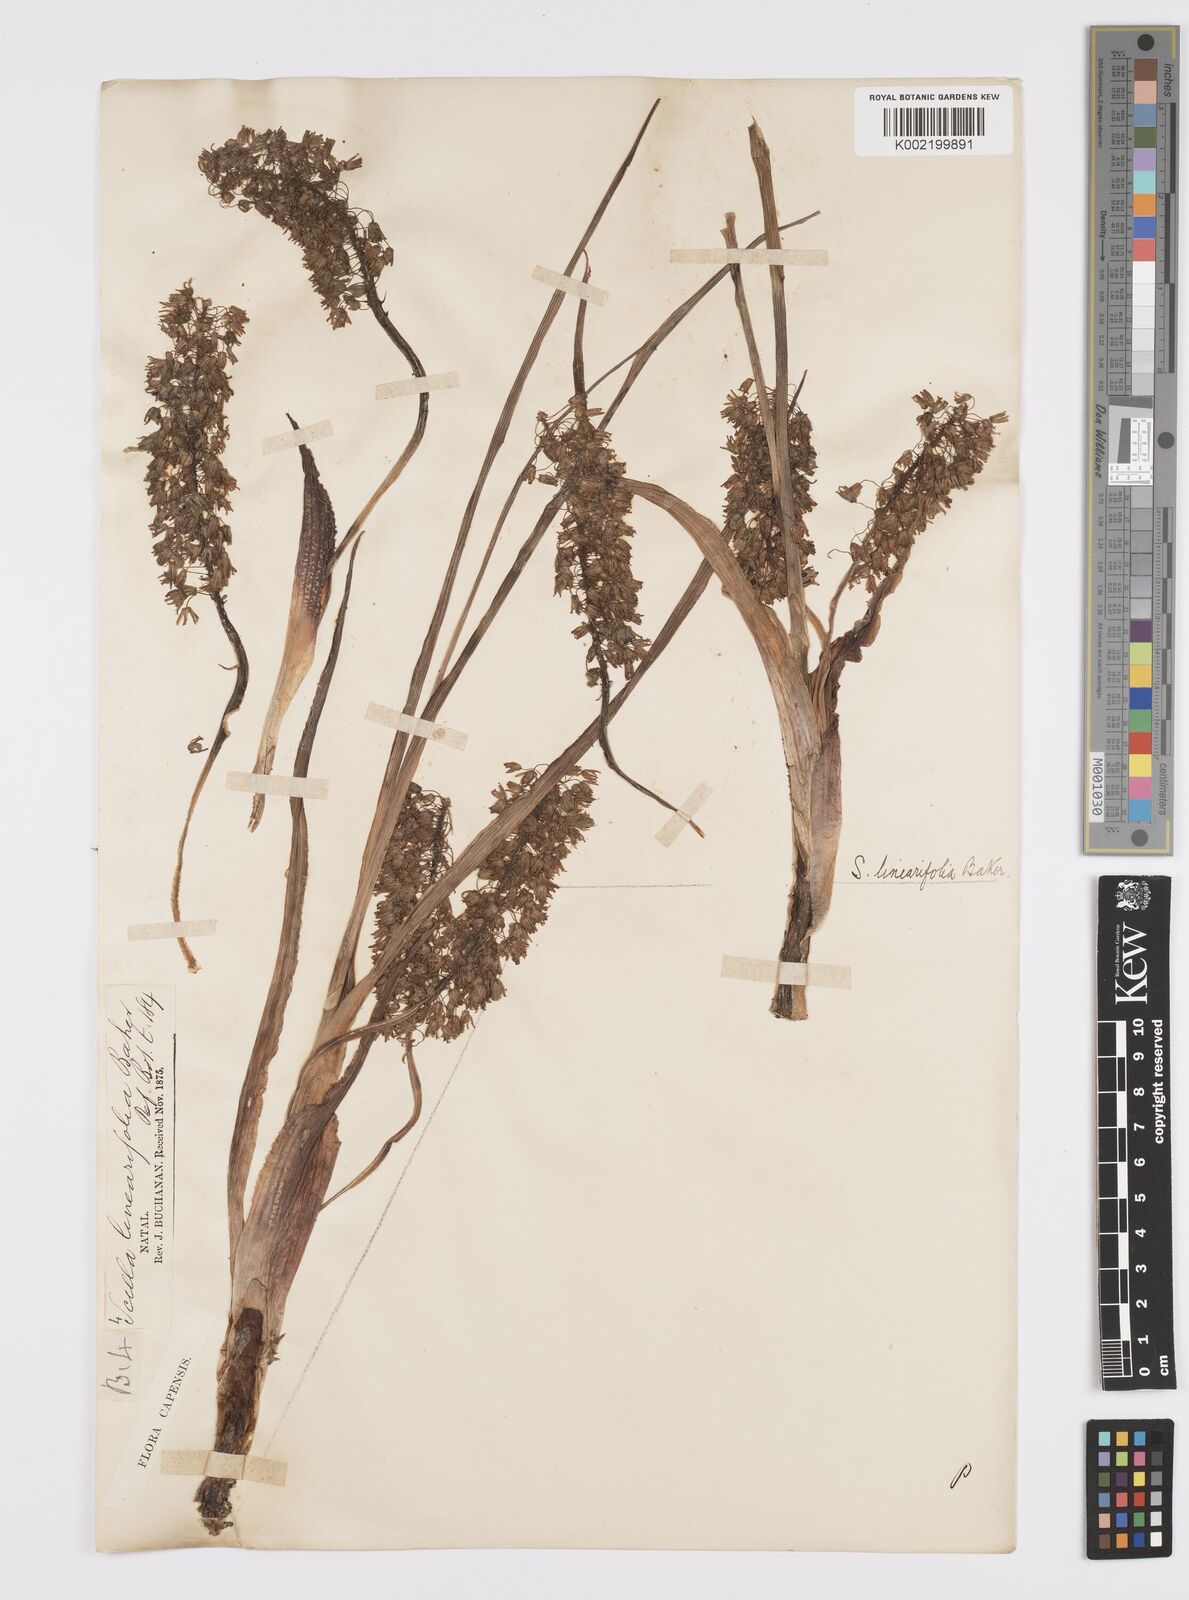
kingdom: Plantae
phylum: Tracheophyta
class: Liliopsida
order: Asparagales
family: Asparagaceae
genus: Ledebouria
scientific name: Ledebouria apertiflora
